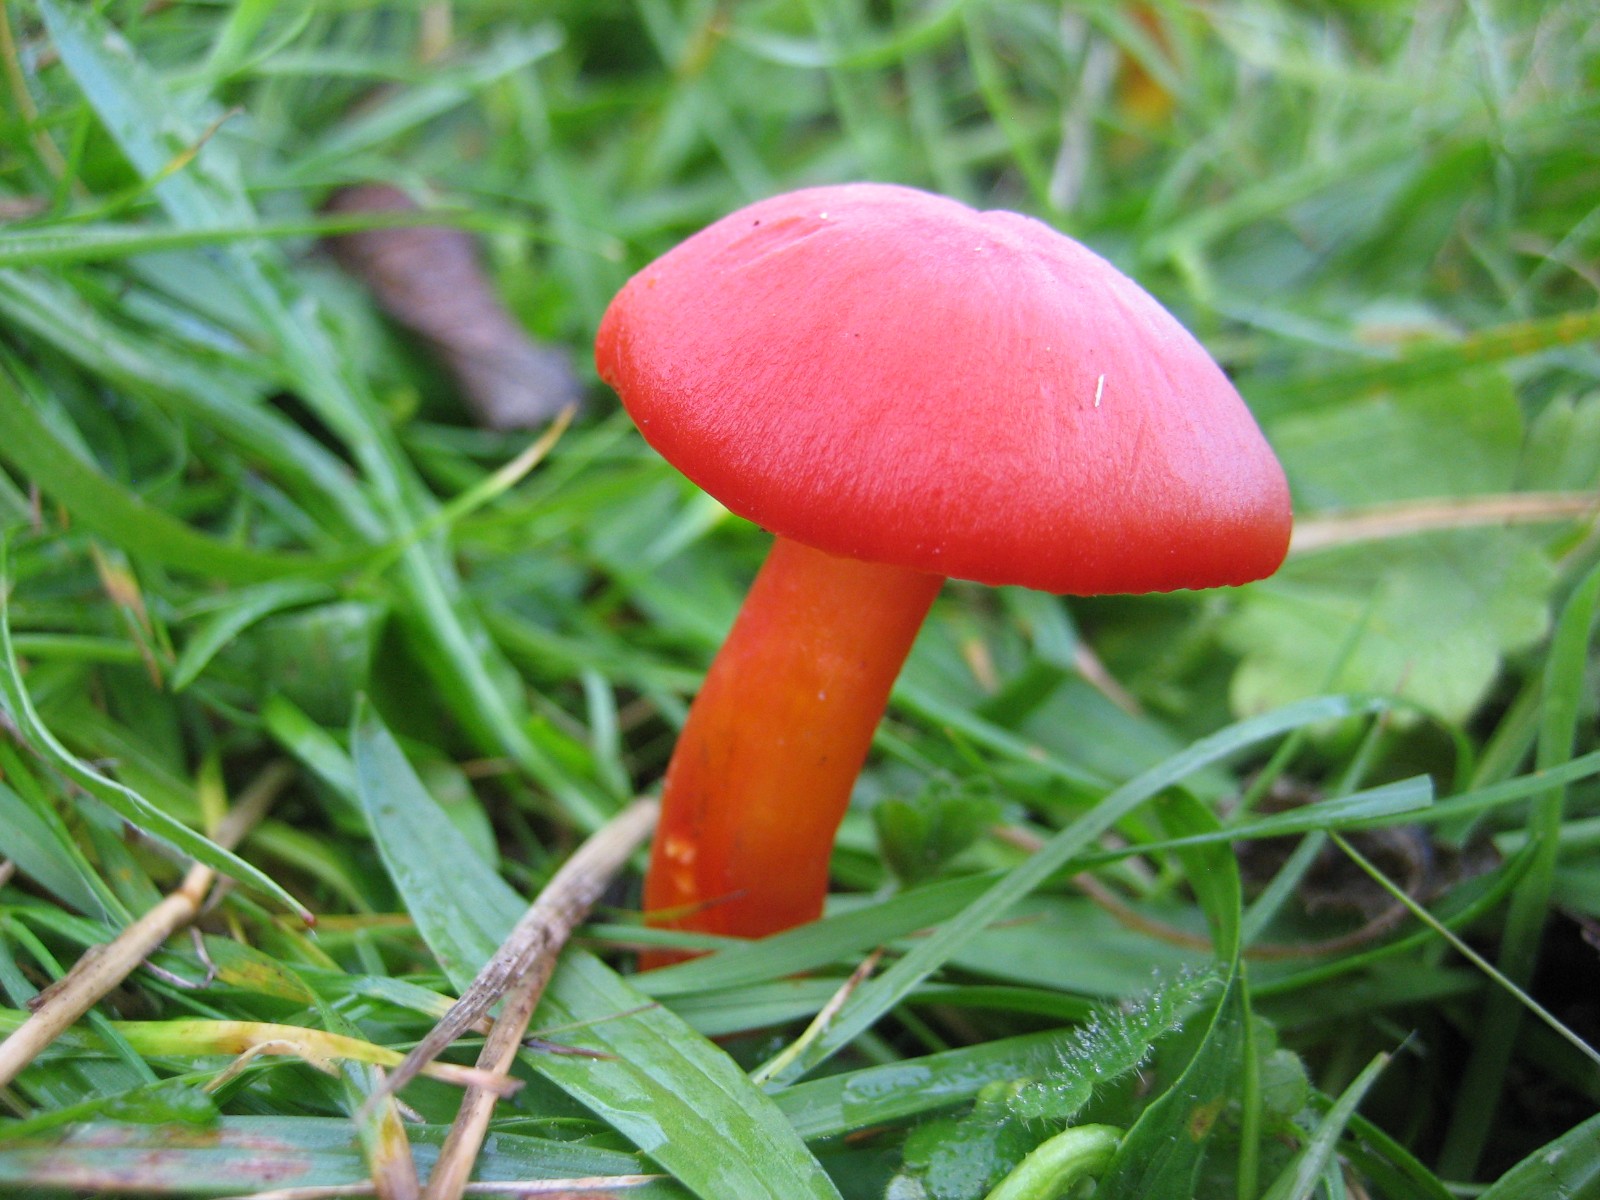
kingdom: Fungi
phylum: Basidiomycota
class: Agaricomycetes
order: Agaricales
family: Hygrophoraceae
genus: Hygrocybe
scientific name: Hygrocybe coccinea
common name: cinnober-vokshat
